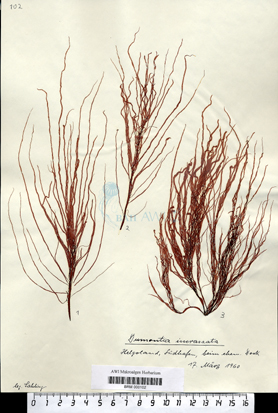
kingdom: Plantae
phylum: Rhodophyta
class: Florideophyceae
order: Gigartinales
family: Dumontiaceae
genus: Dumontia
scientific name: Dumontia contorta
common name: Worm weed
